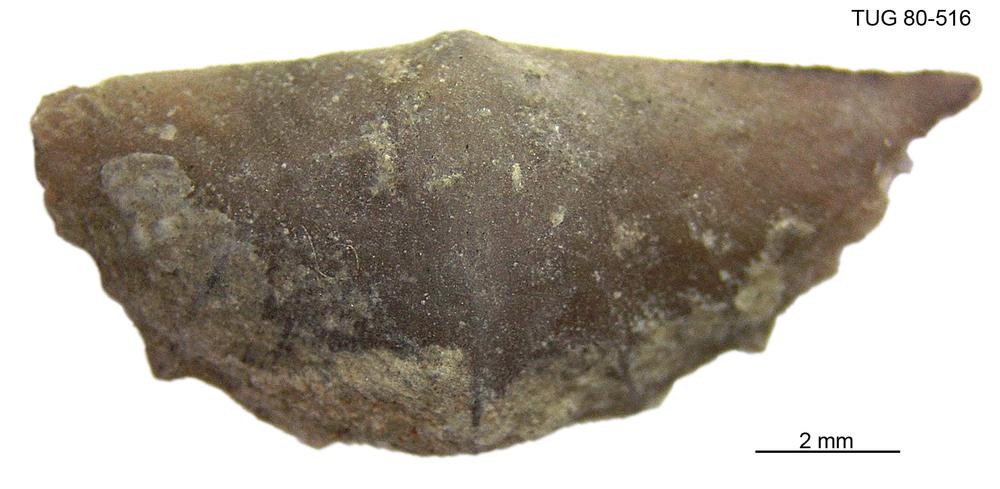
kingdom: Animalia
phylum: Brachiopoda
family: Sowerbyellidae
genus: Sowerbyella
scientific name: Sowerbyella
